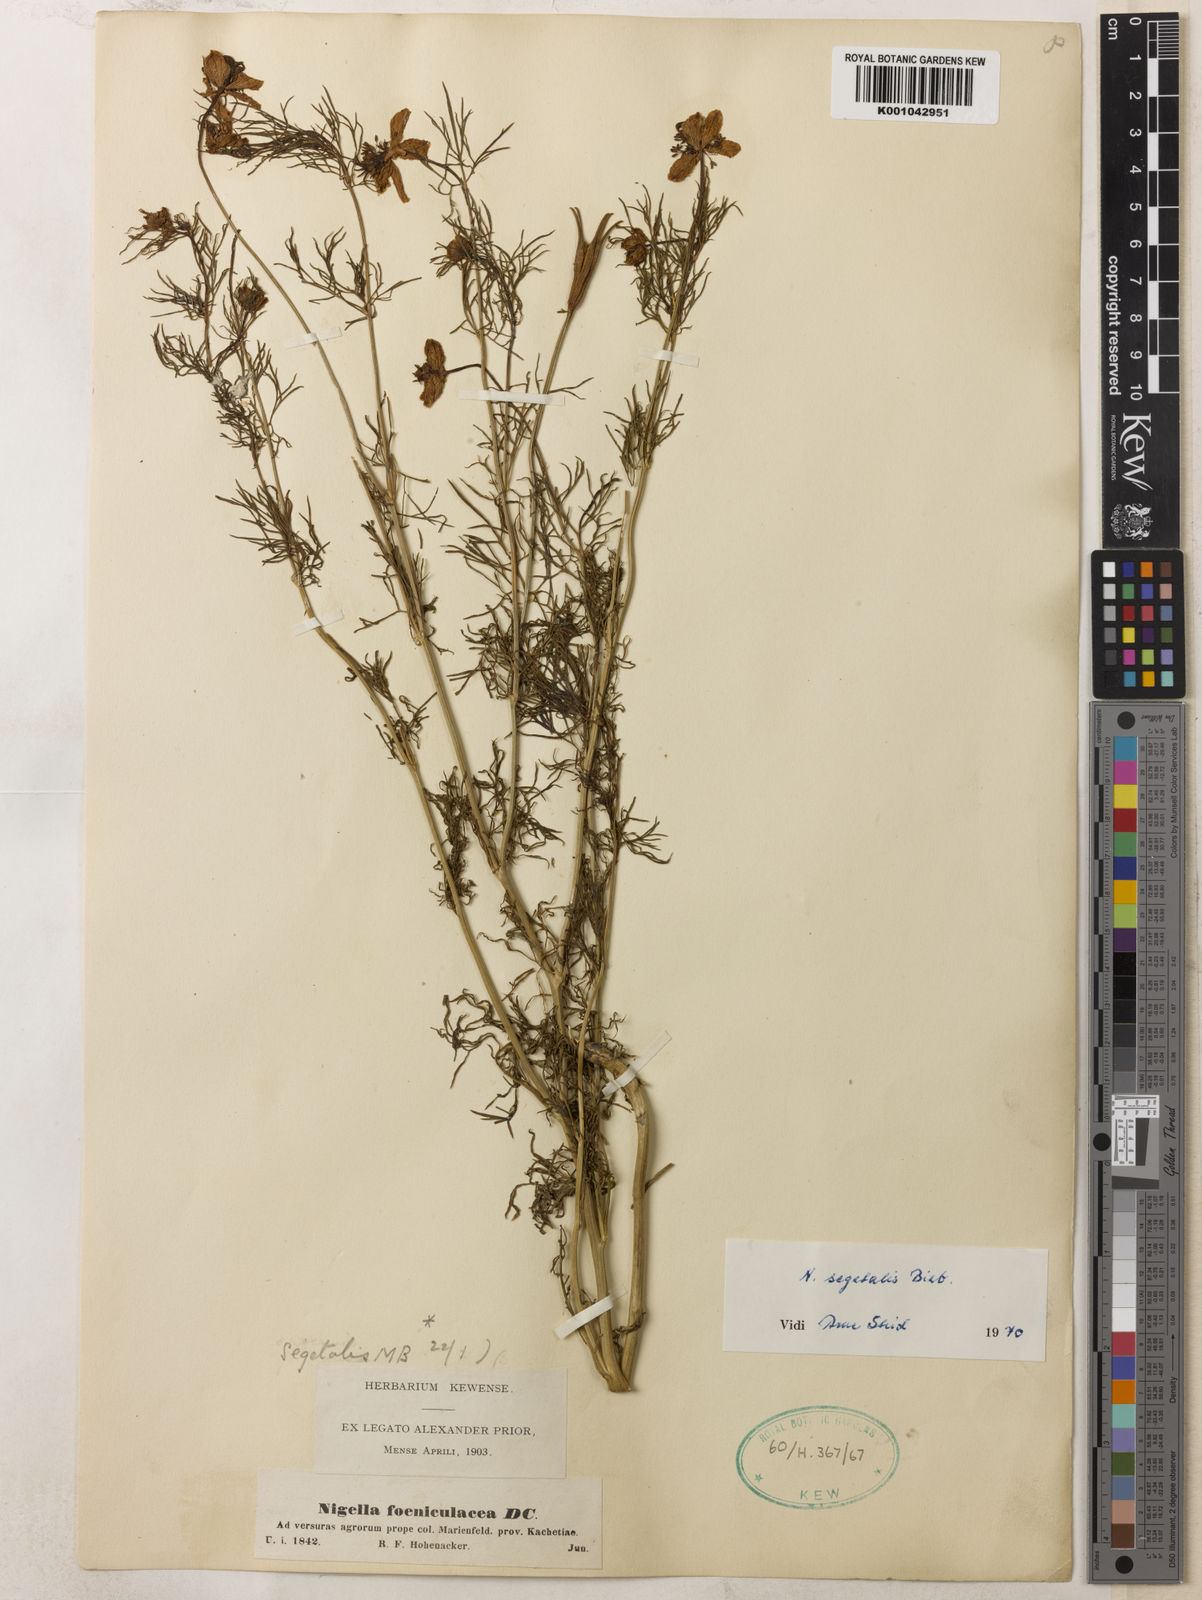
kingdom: Plantae
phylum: Tracheophyta
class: Magnoliopsida
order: Ranunculales
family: Ranunculaceae
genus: Nigella
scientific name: Nigella segetalis
